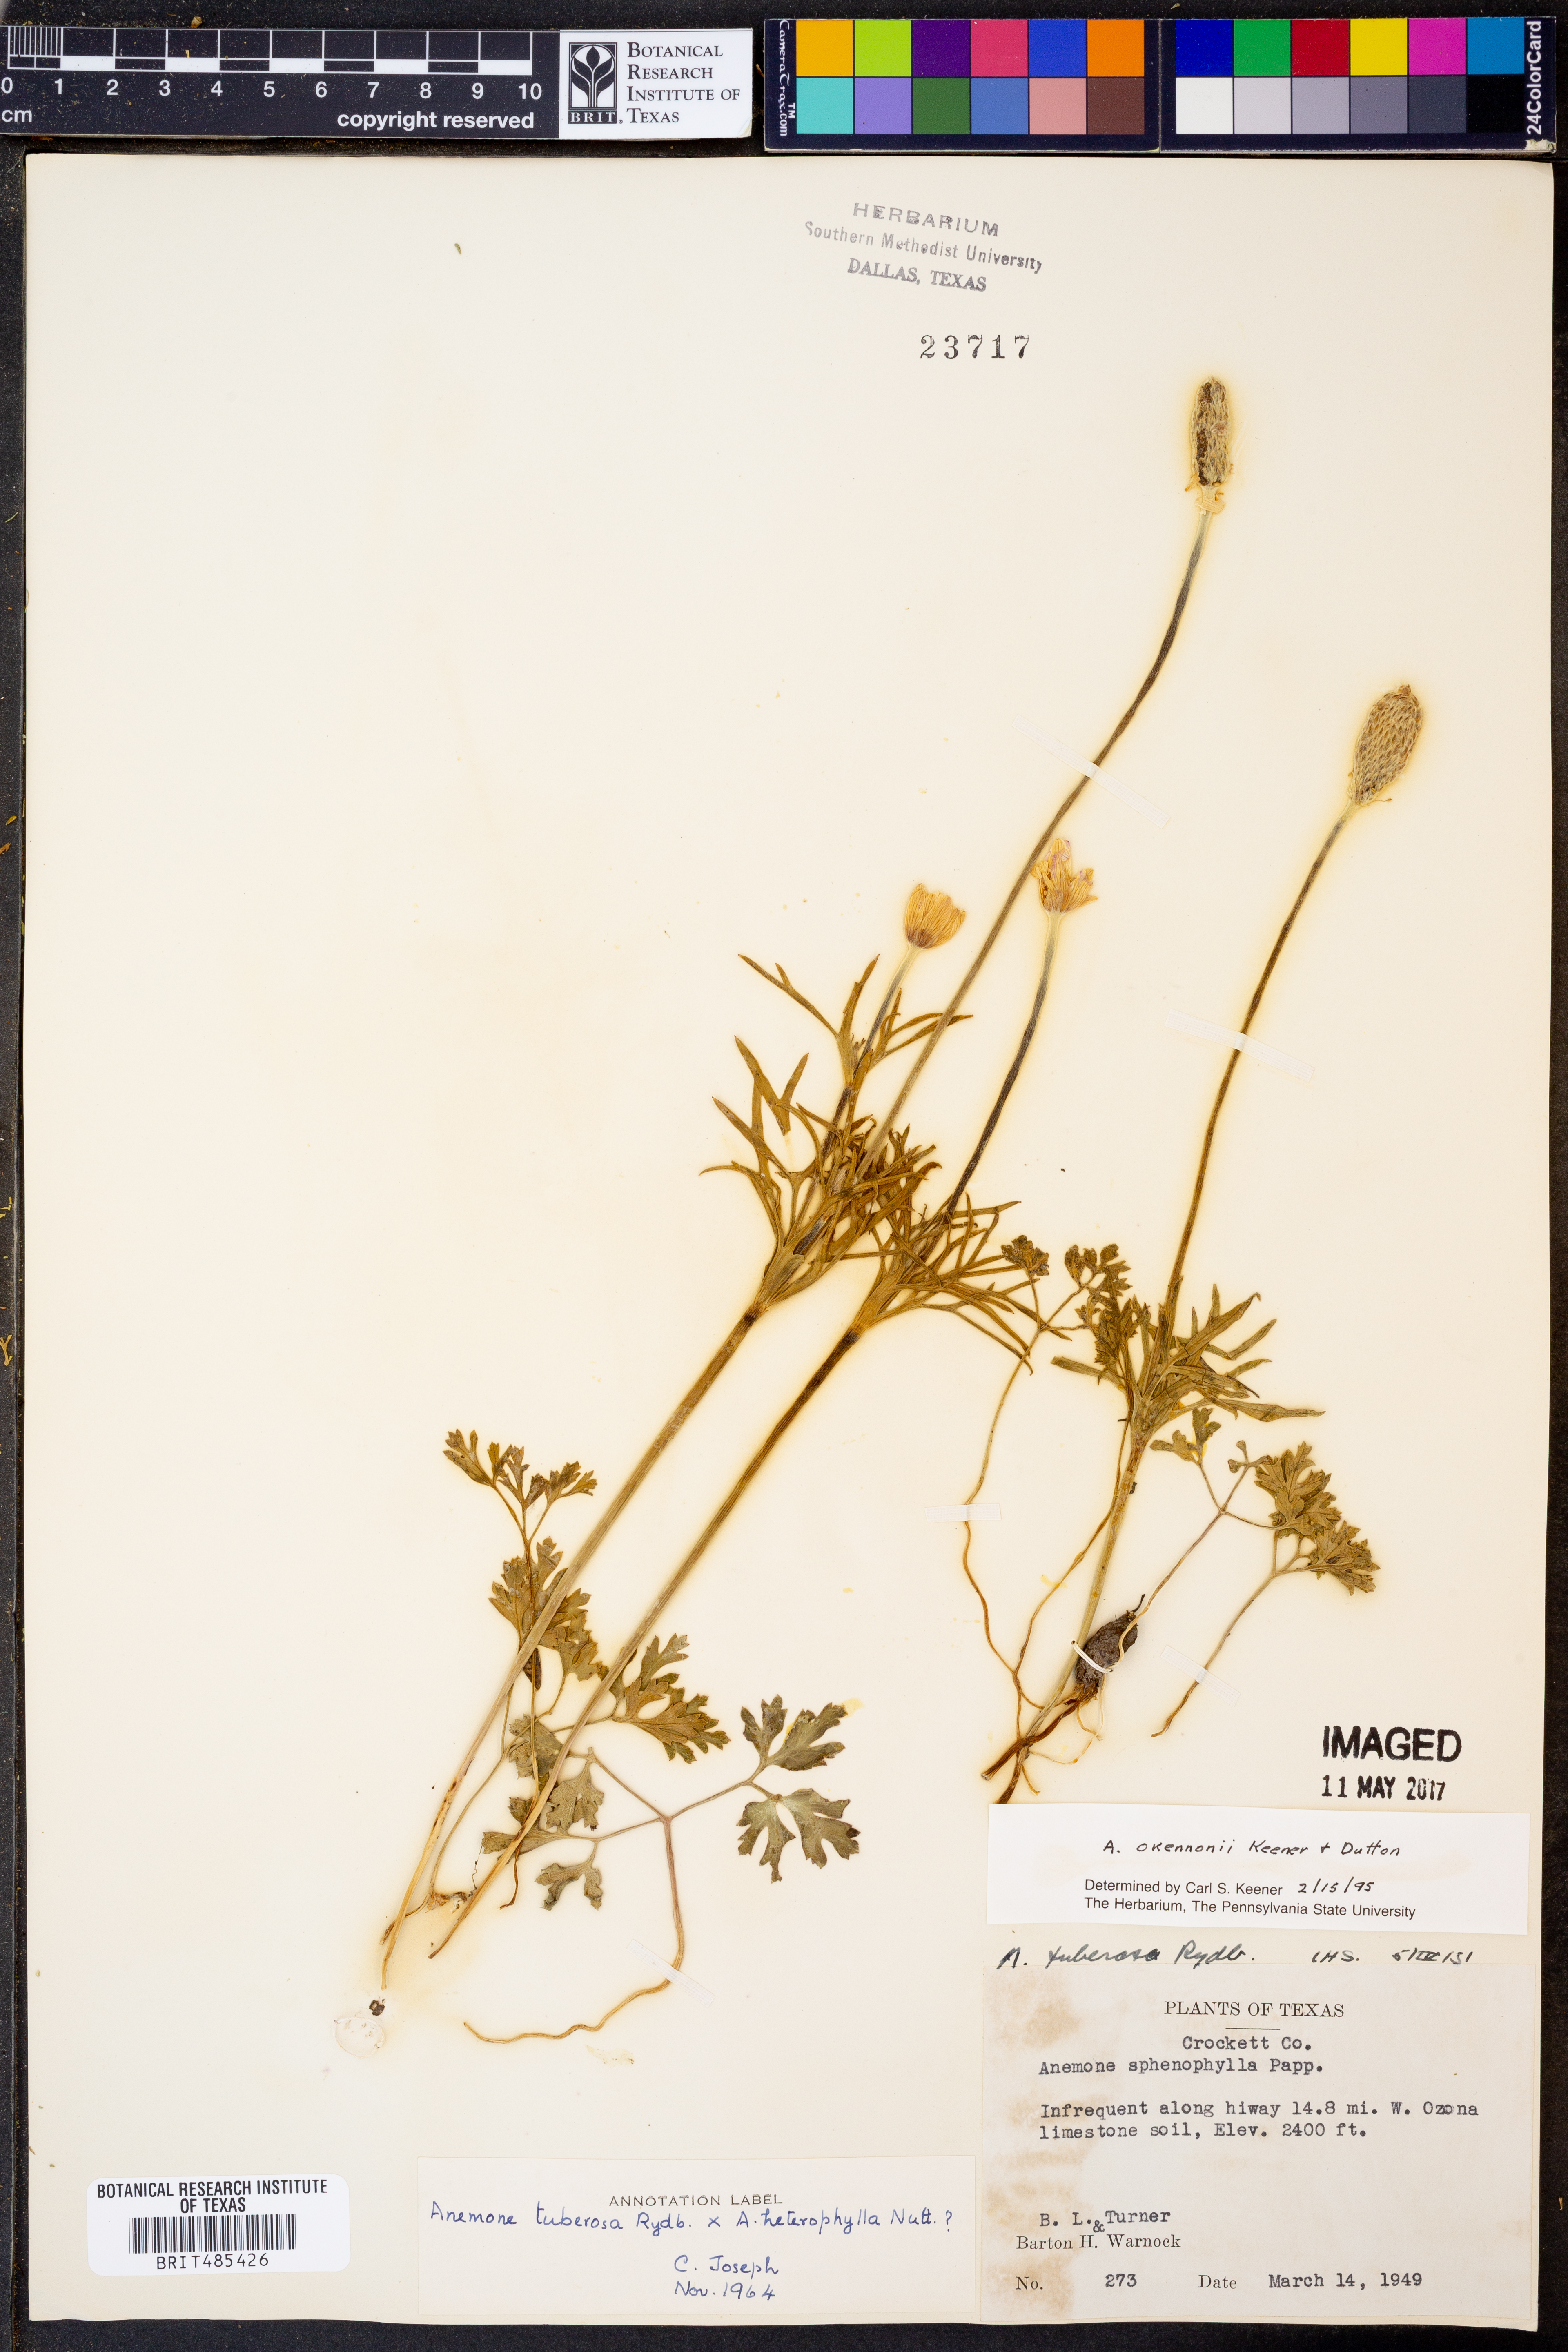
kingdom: Plantae
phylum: Tracheophyta
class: Magnoliopsida
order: Ranunculales
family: Ranunculaceae
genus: Anemone
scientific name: Anemone tuberosa
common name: Desert anemone
